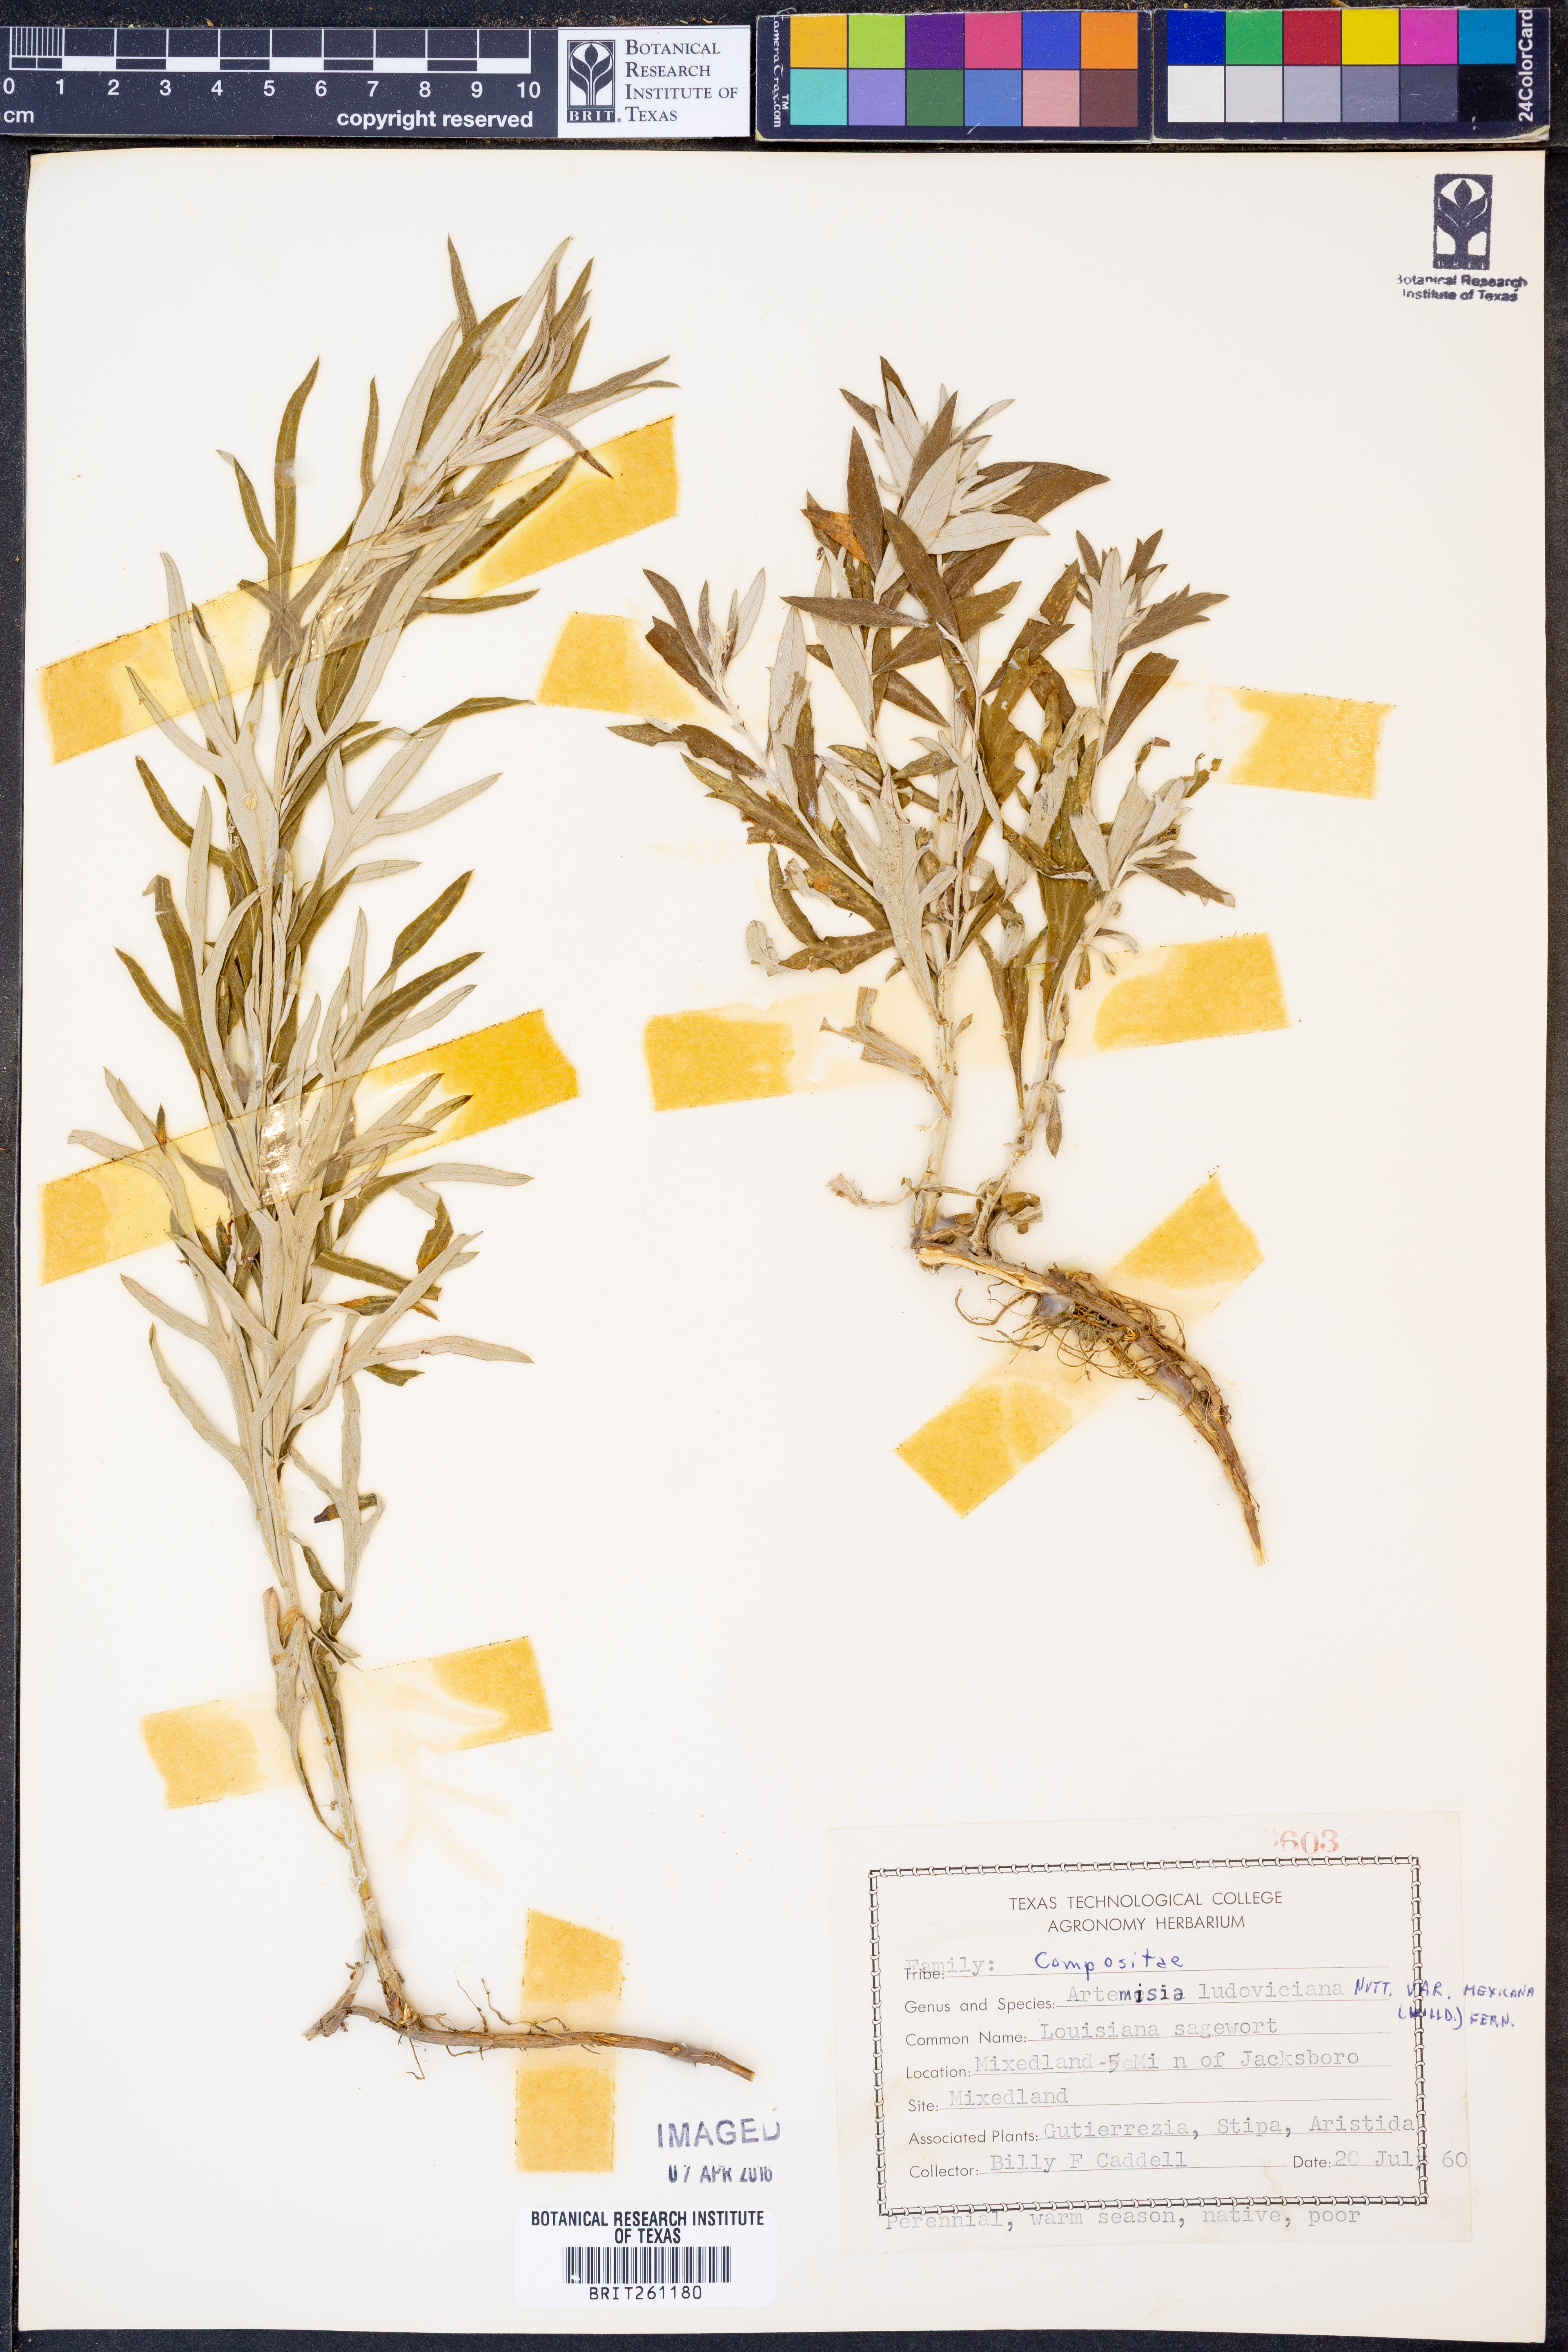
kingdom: Plantae
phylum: Tracheophyta
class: Magnoliopsida
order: Asterales
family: Asteraceae
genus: Artemisia
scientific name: Artemisia ludoviciana
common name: Western mugwort
